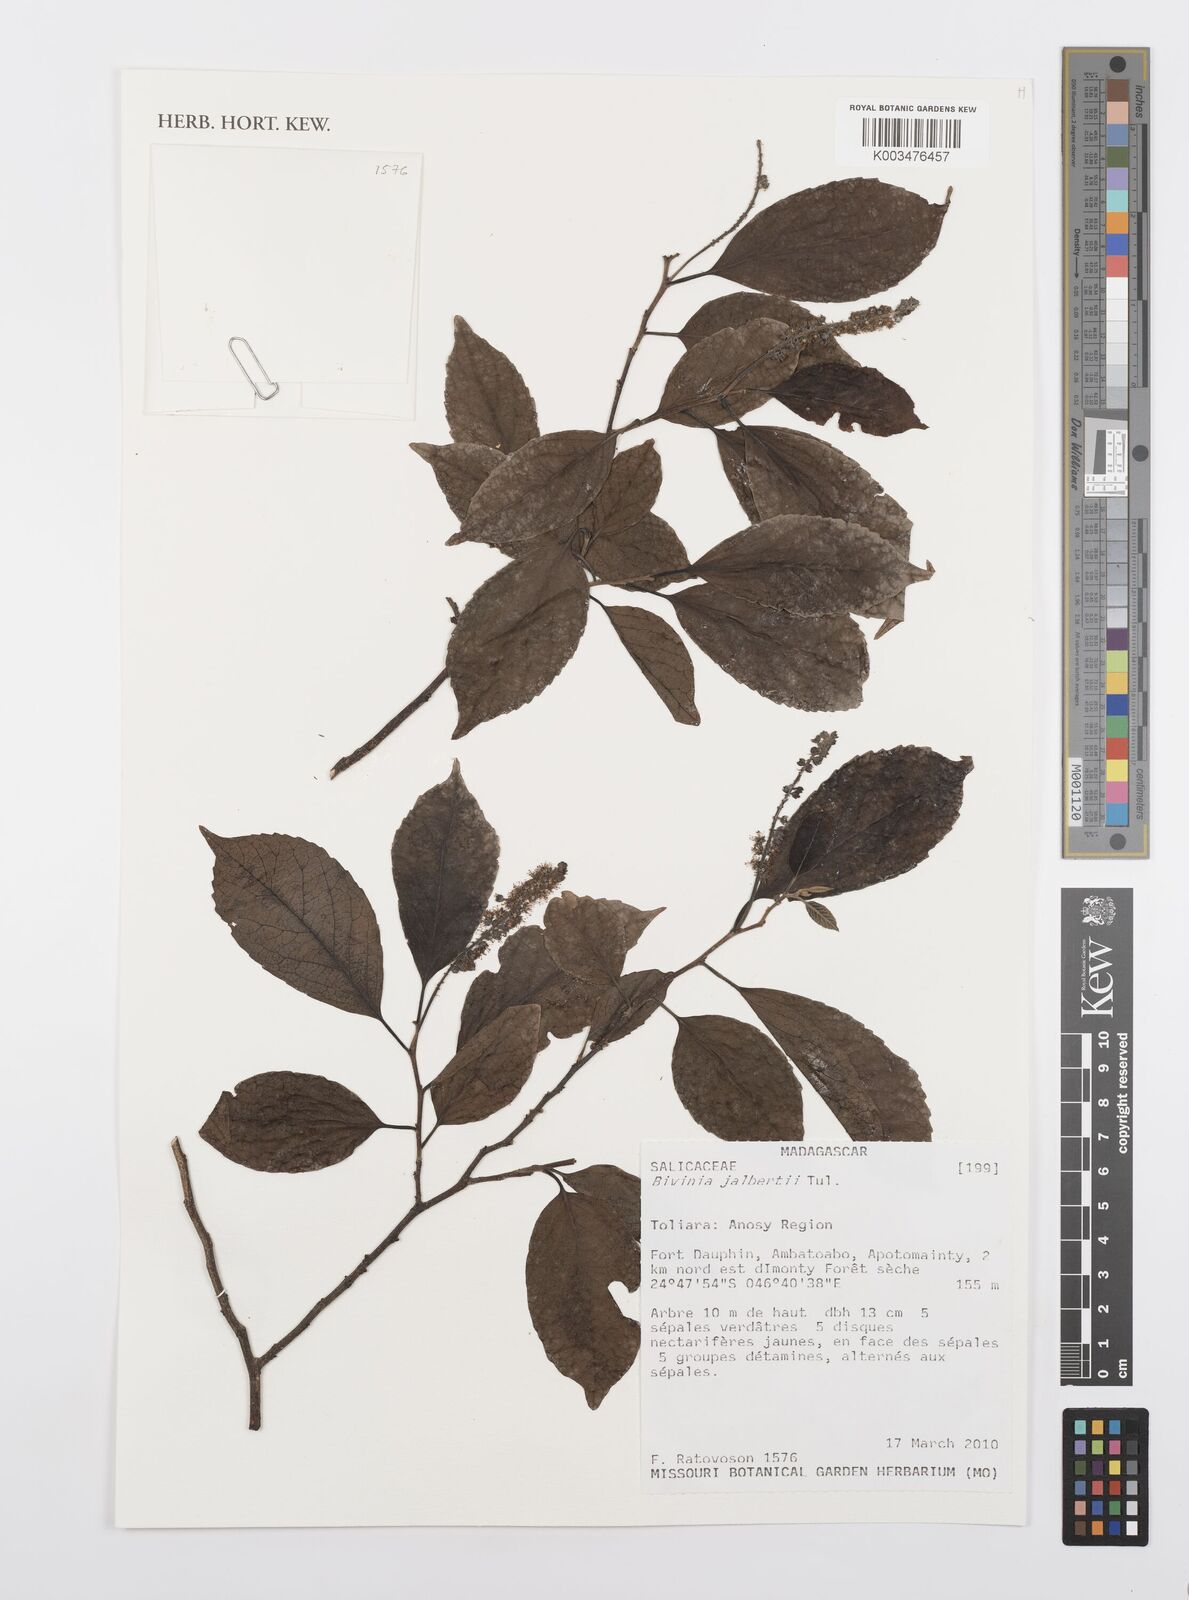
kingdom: Plantae
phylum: Tracheophyta
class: Magnoliopsida
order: Malpighiales
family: Salicaceae
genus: Bivinia
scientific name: Bivinia jalbertii
